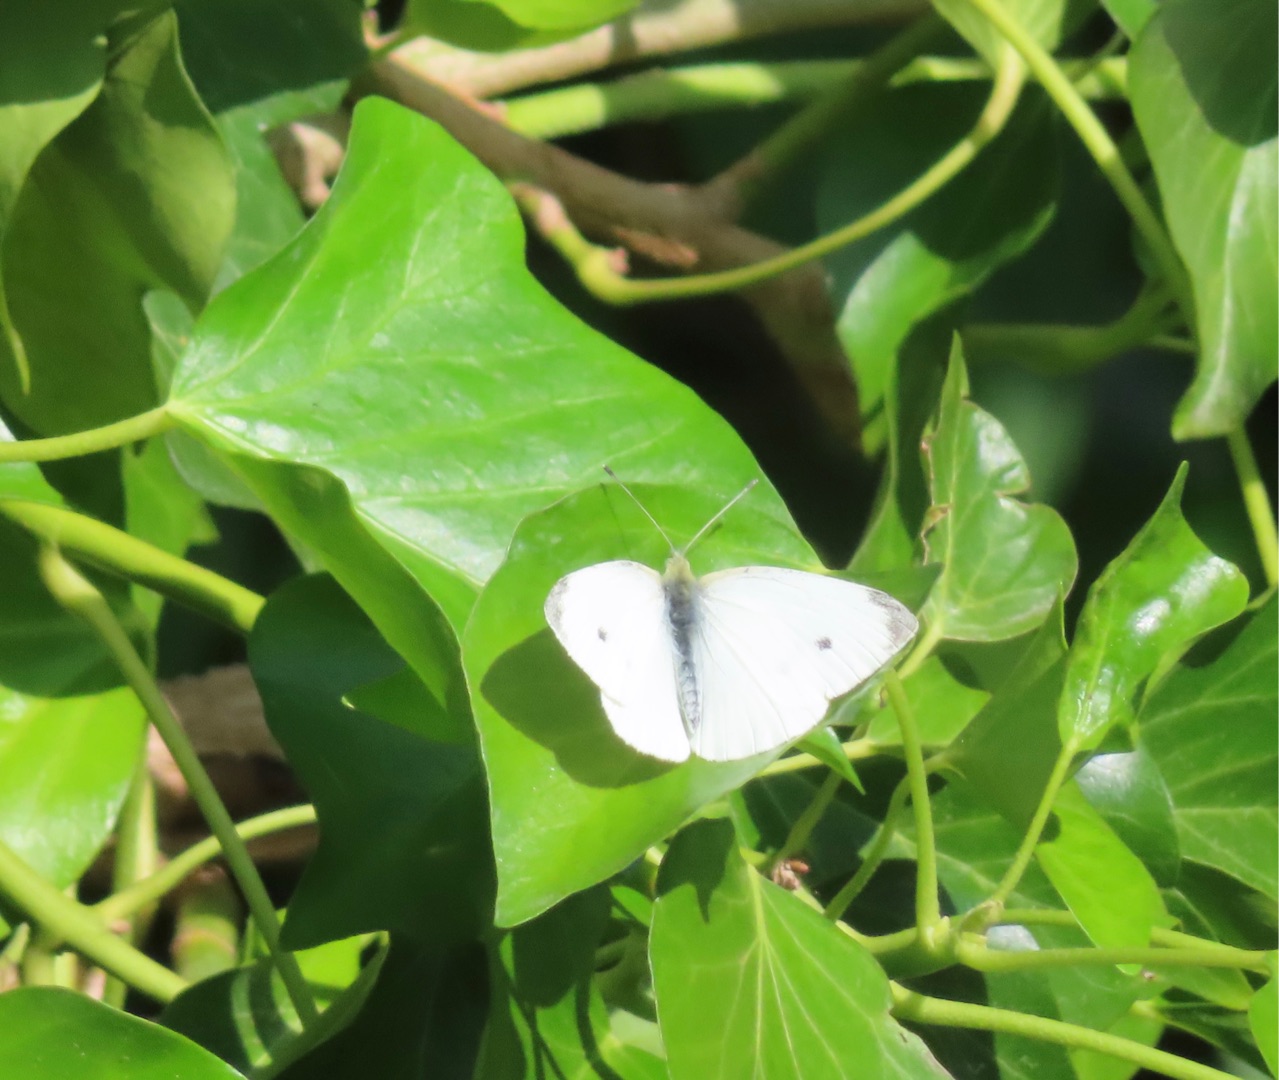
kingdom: Animalia
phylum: Arthropoda
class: Insecta
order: Lepidoptera
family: Pieridae
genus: Pieris
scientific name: Pieris rapae
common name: Lille kålsommerfugl
